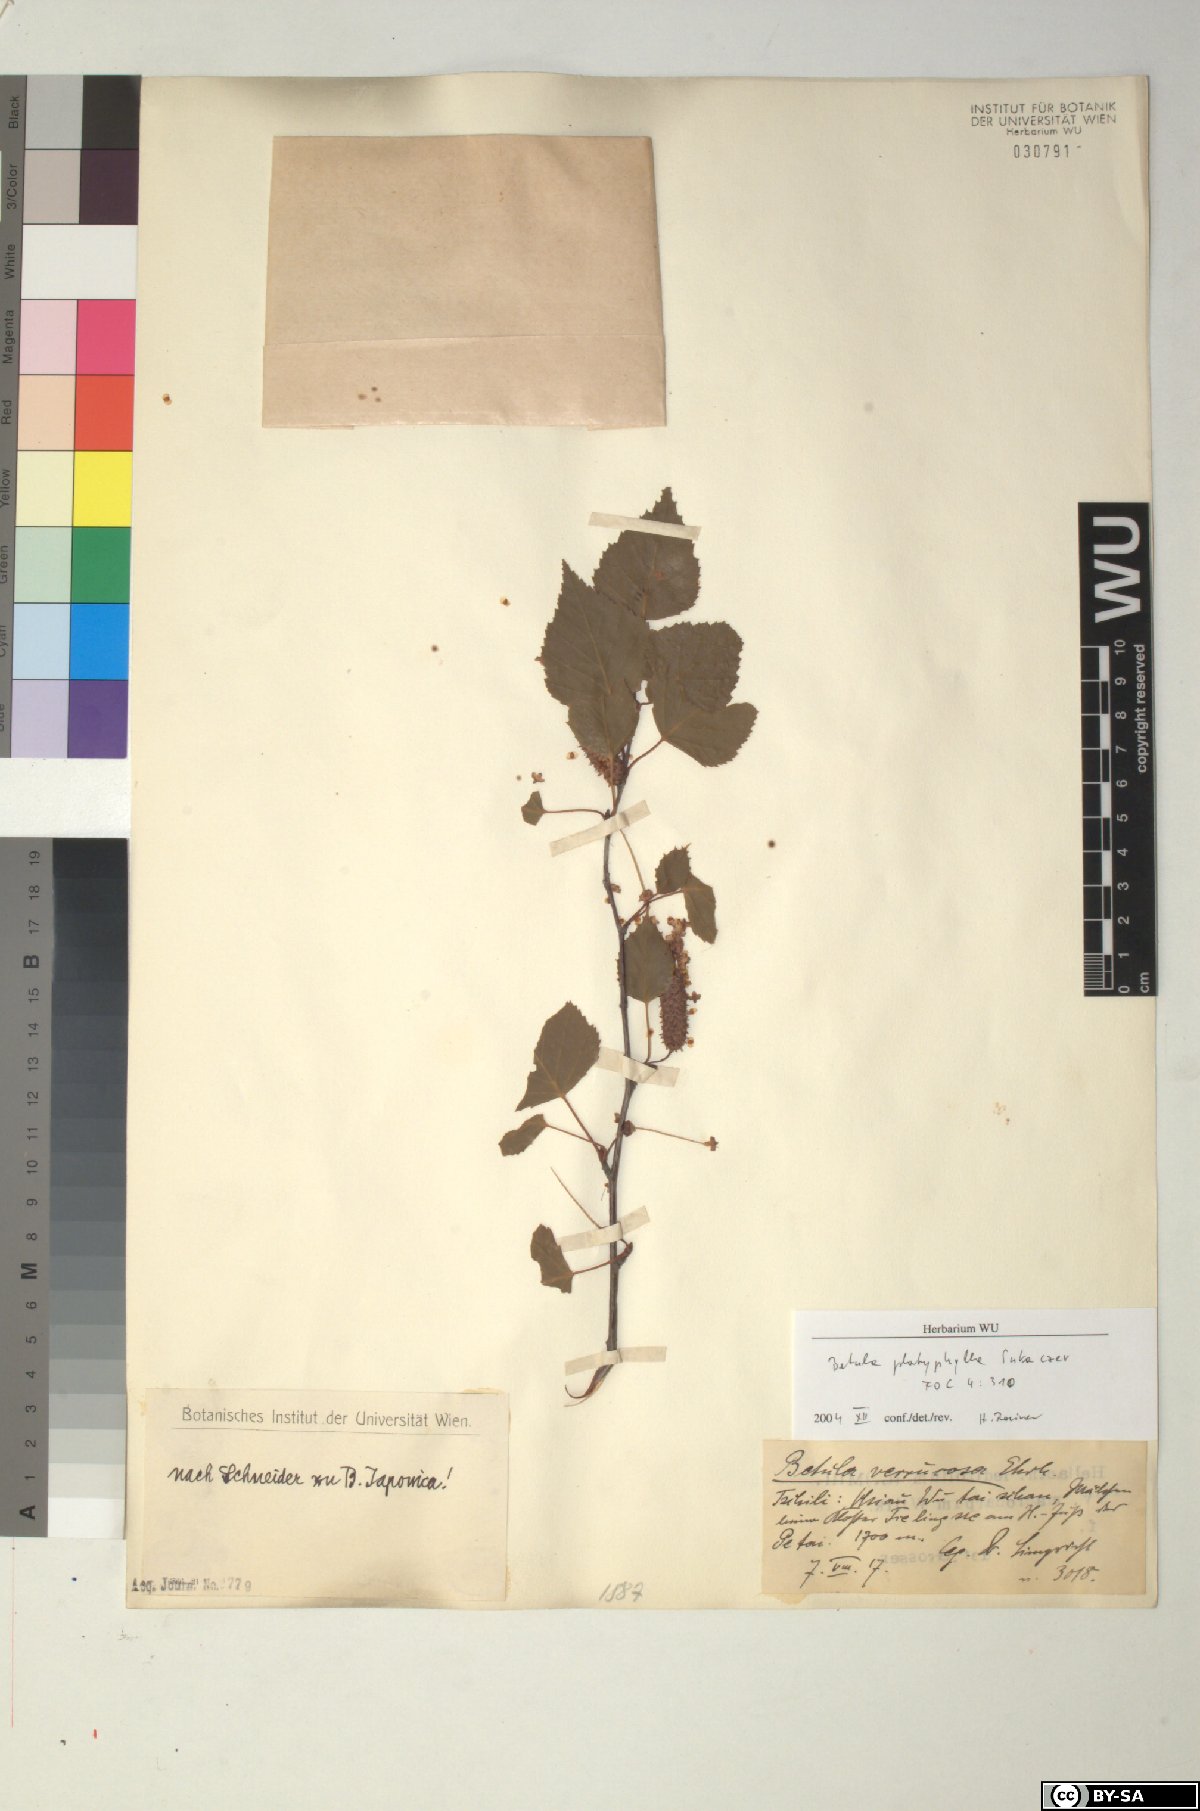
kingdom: Plantae
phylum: Tracheophyta
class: Magnoliopsida
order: Fagales
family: Betulaceae
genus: Betula
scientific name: Betula pendula
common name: Silver birch
